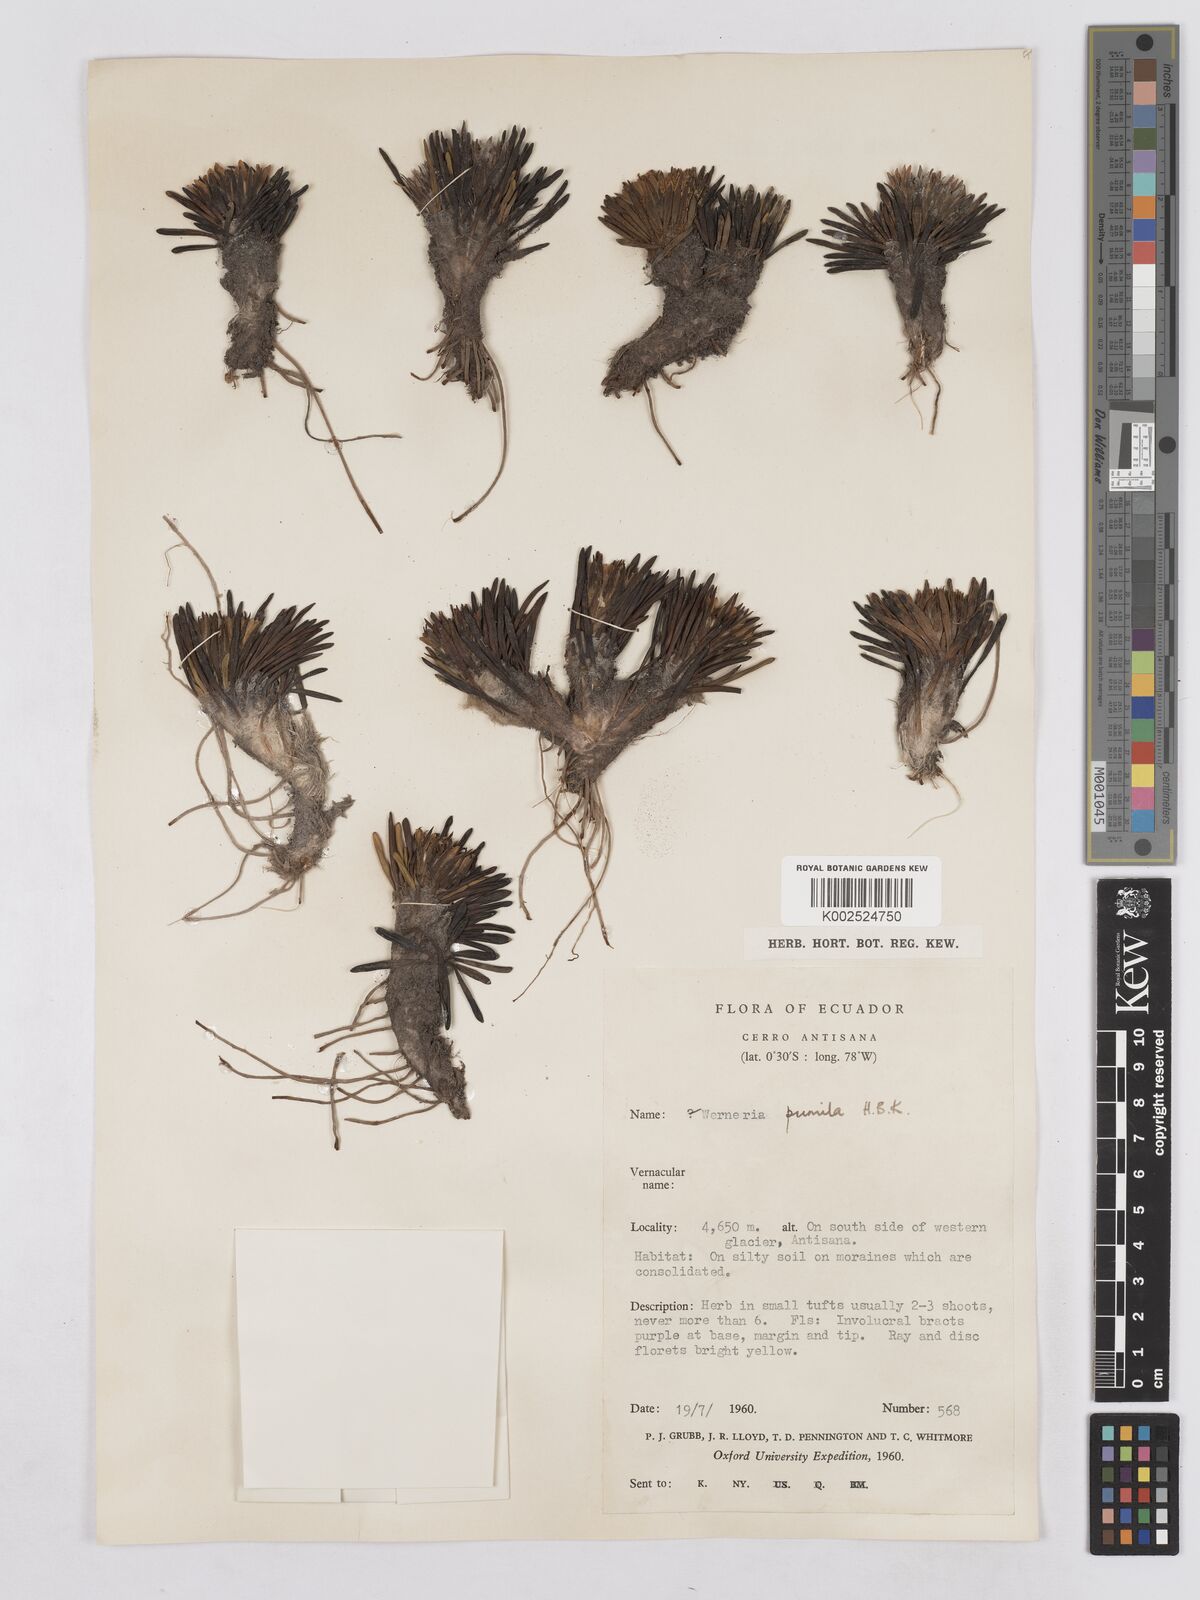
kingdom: Plantae
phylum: Tracheophyta
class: Magnoliopsida
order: Asterales
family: Asteraceae
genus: Rockhausenia
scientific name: Rockhausenia pumila
